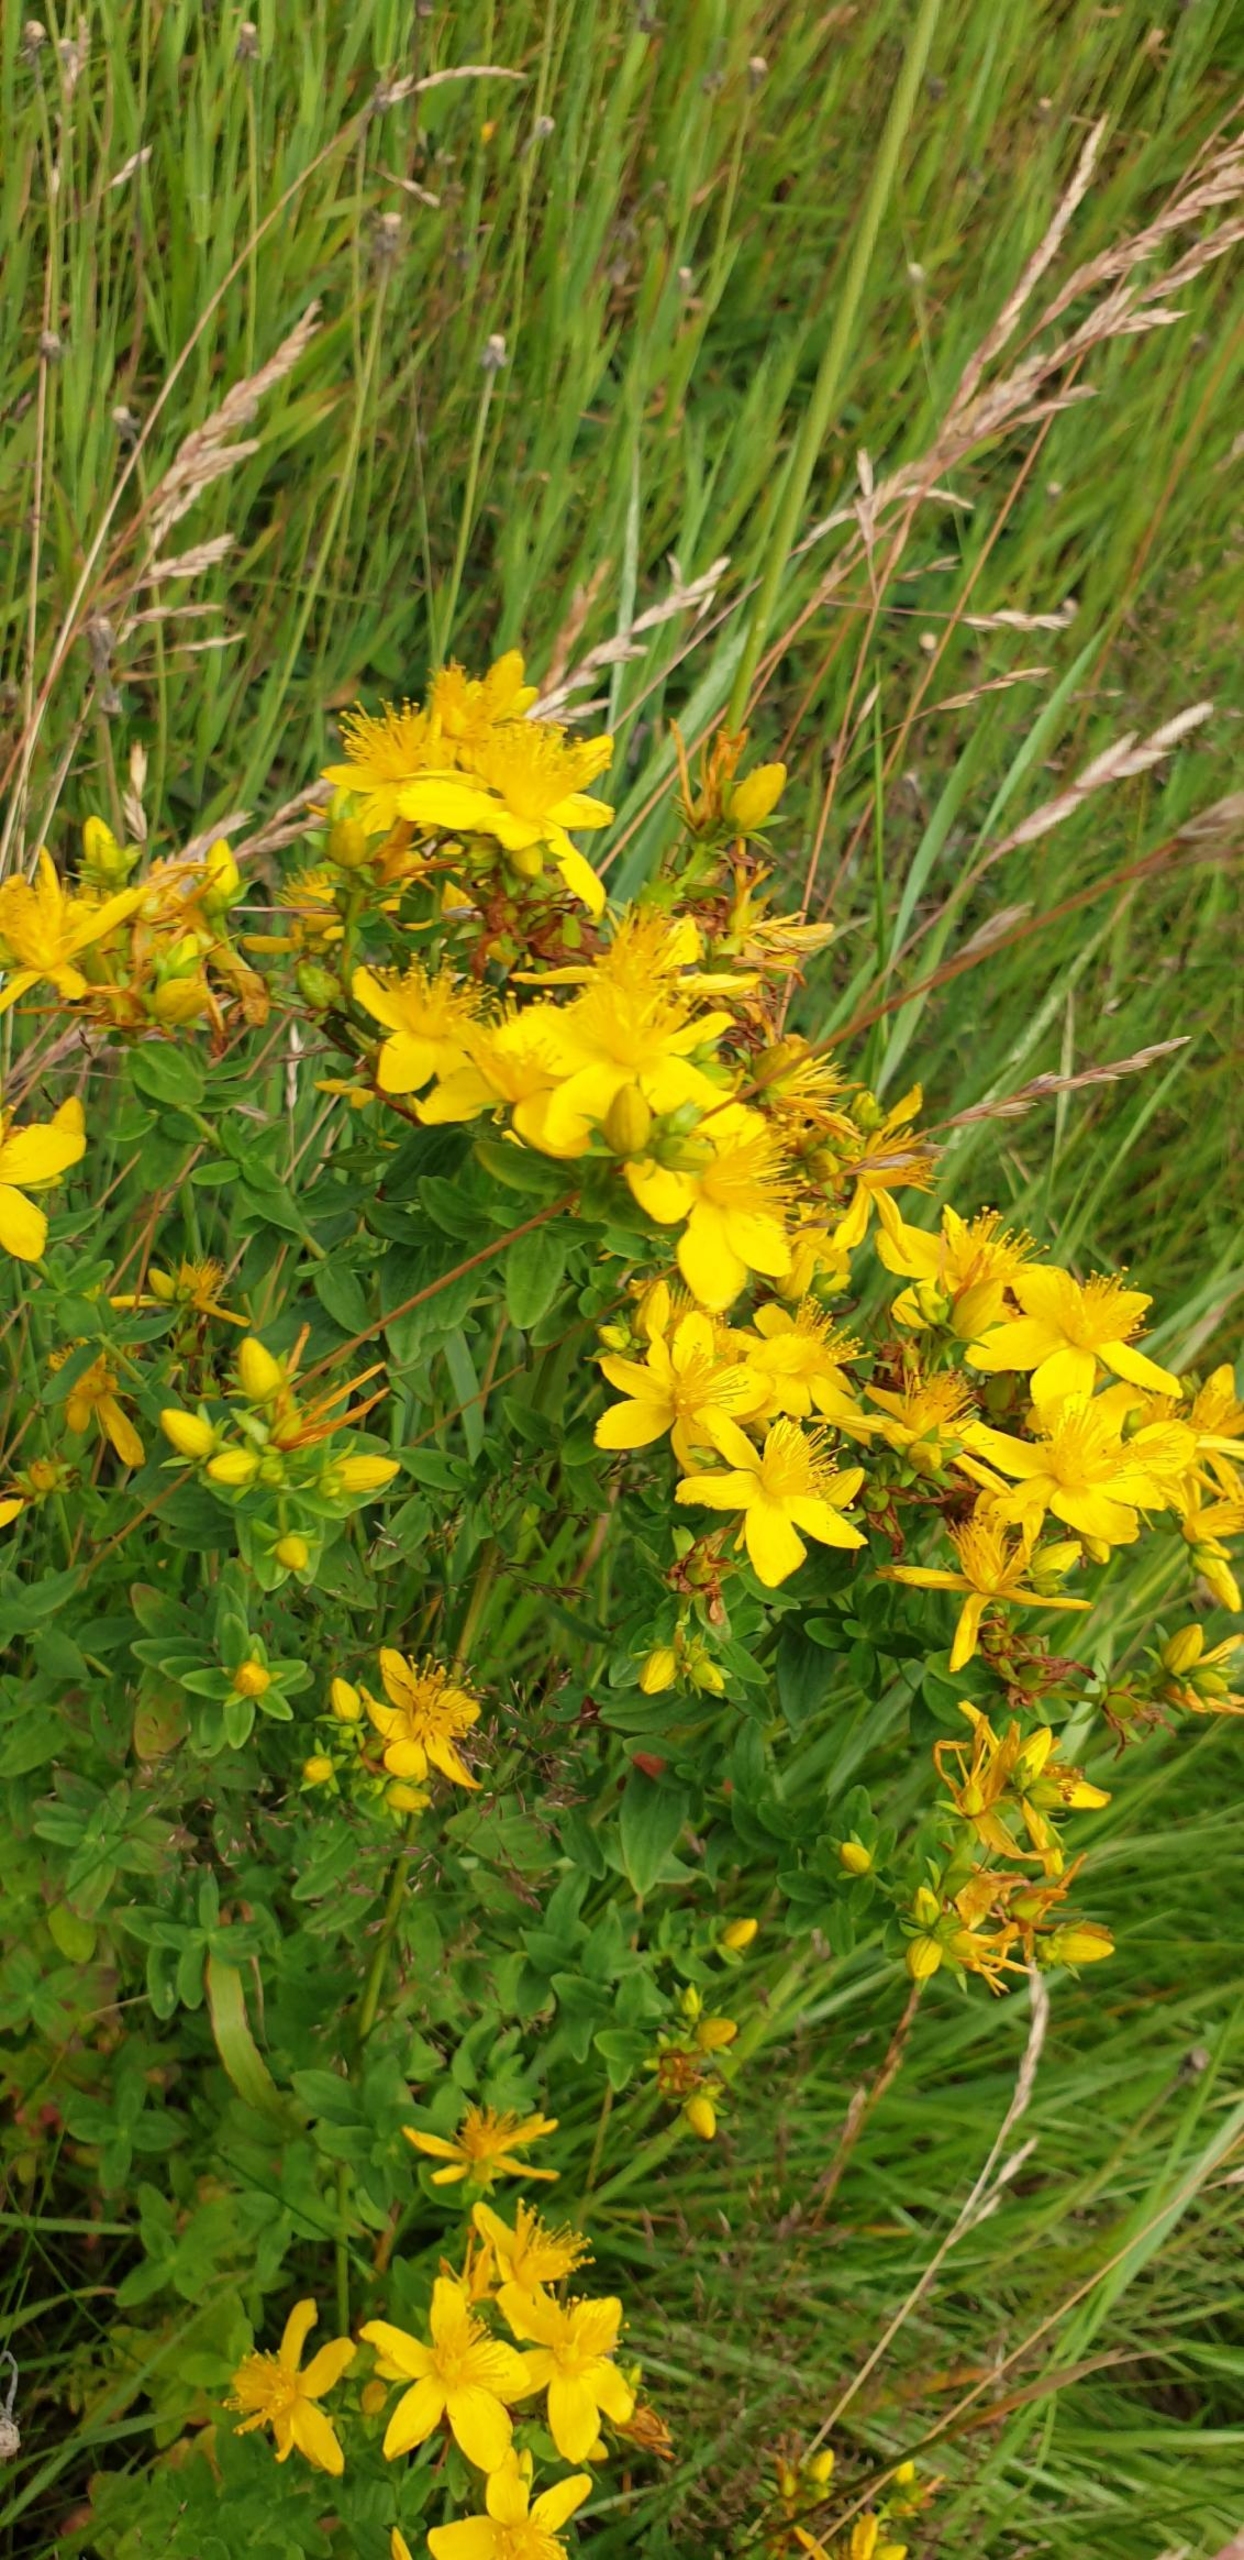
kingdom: Plantae
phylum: Tracheophyta
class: Magnoliopsida
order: Malpighiales
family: Hypericaceae
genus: Hypericum
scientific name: Hypericum perforatum
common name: Prikbladet perikon
